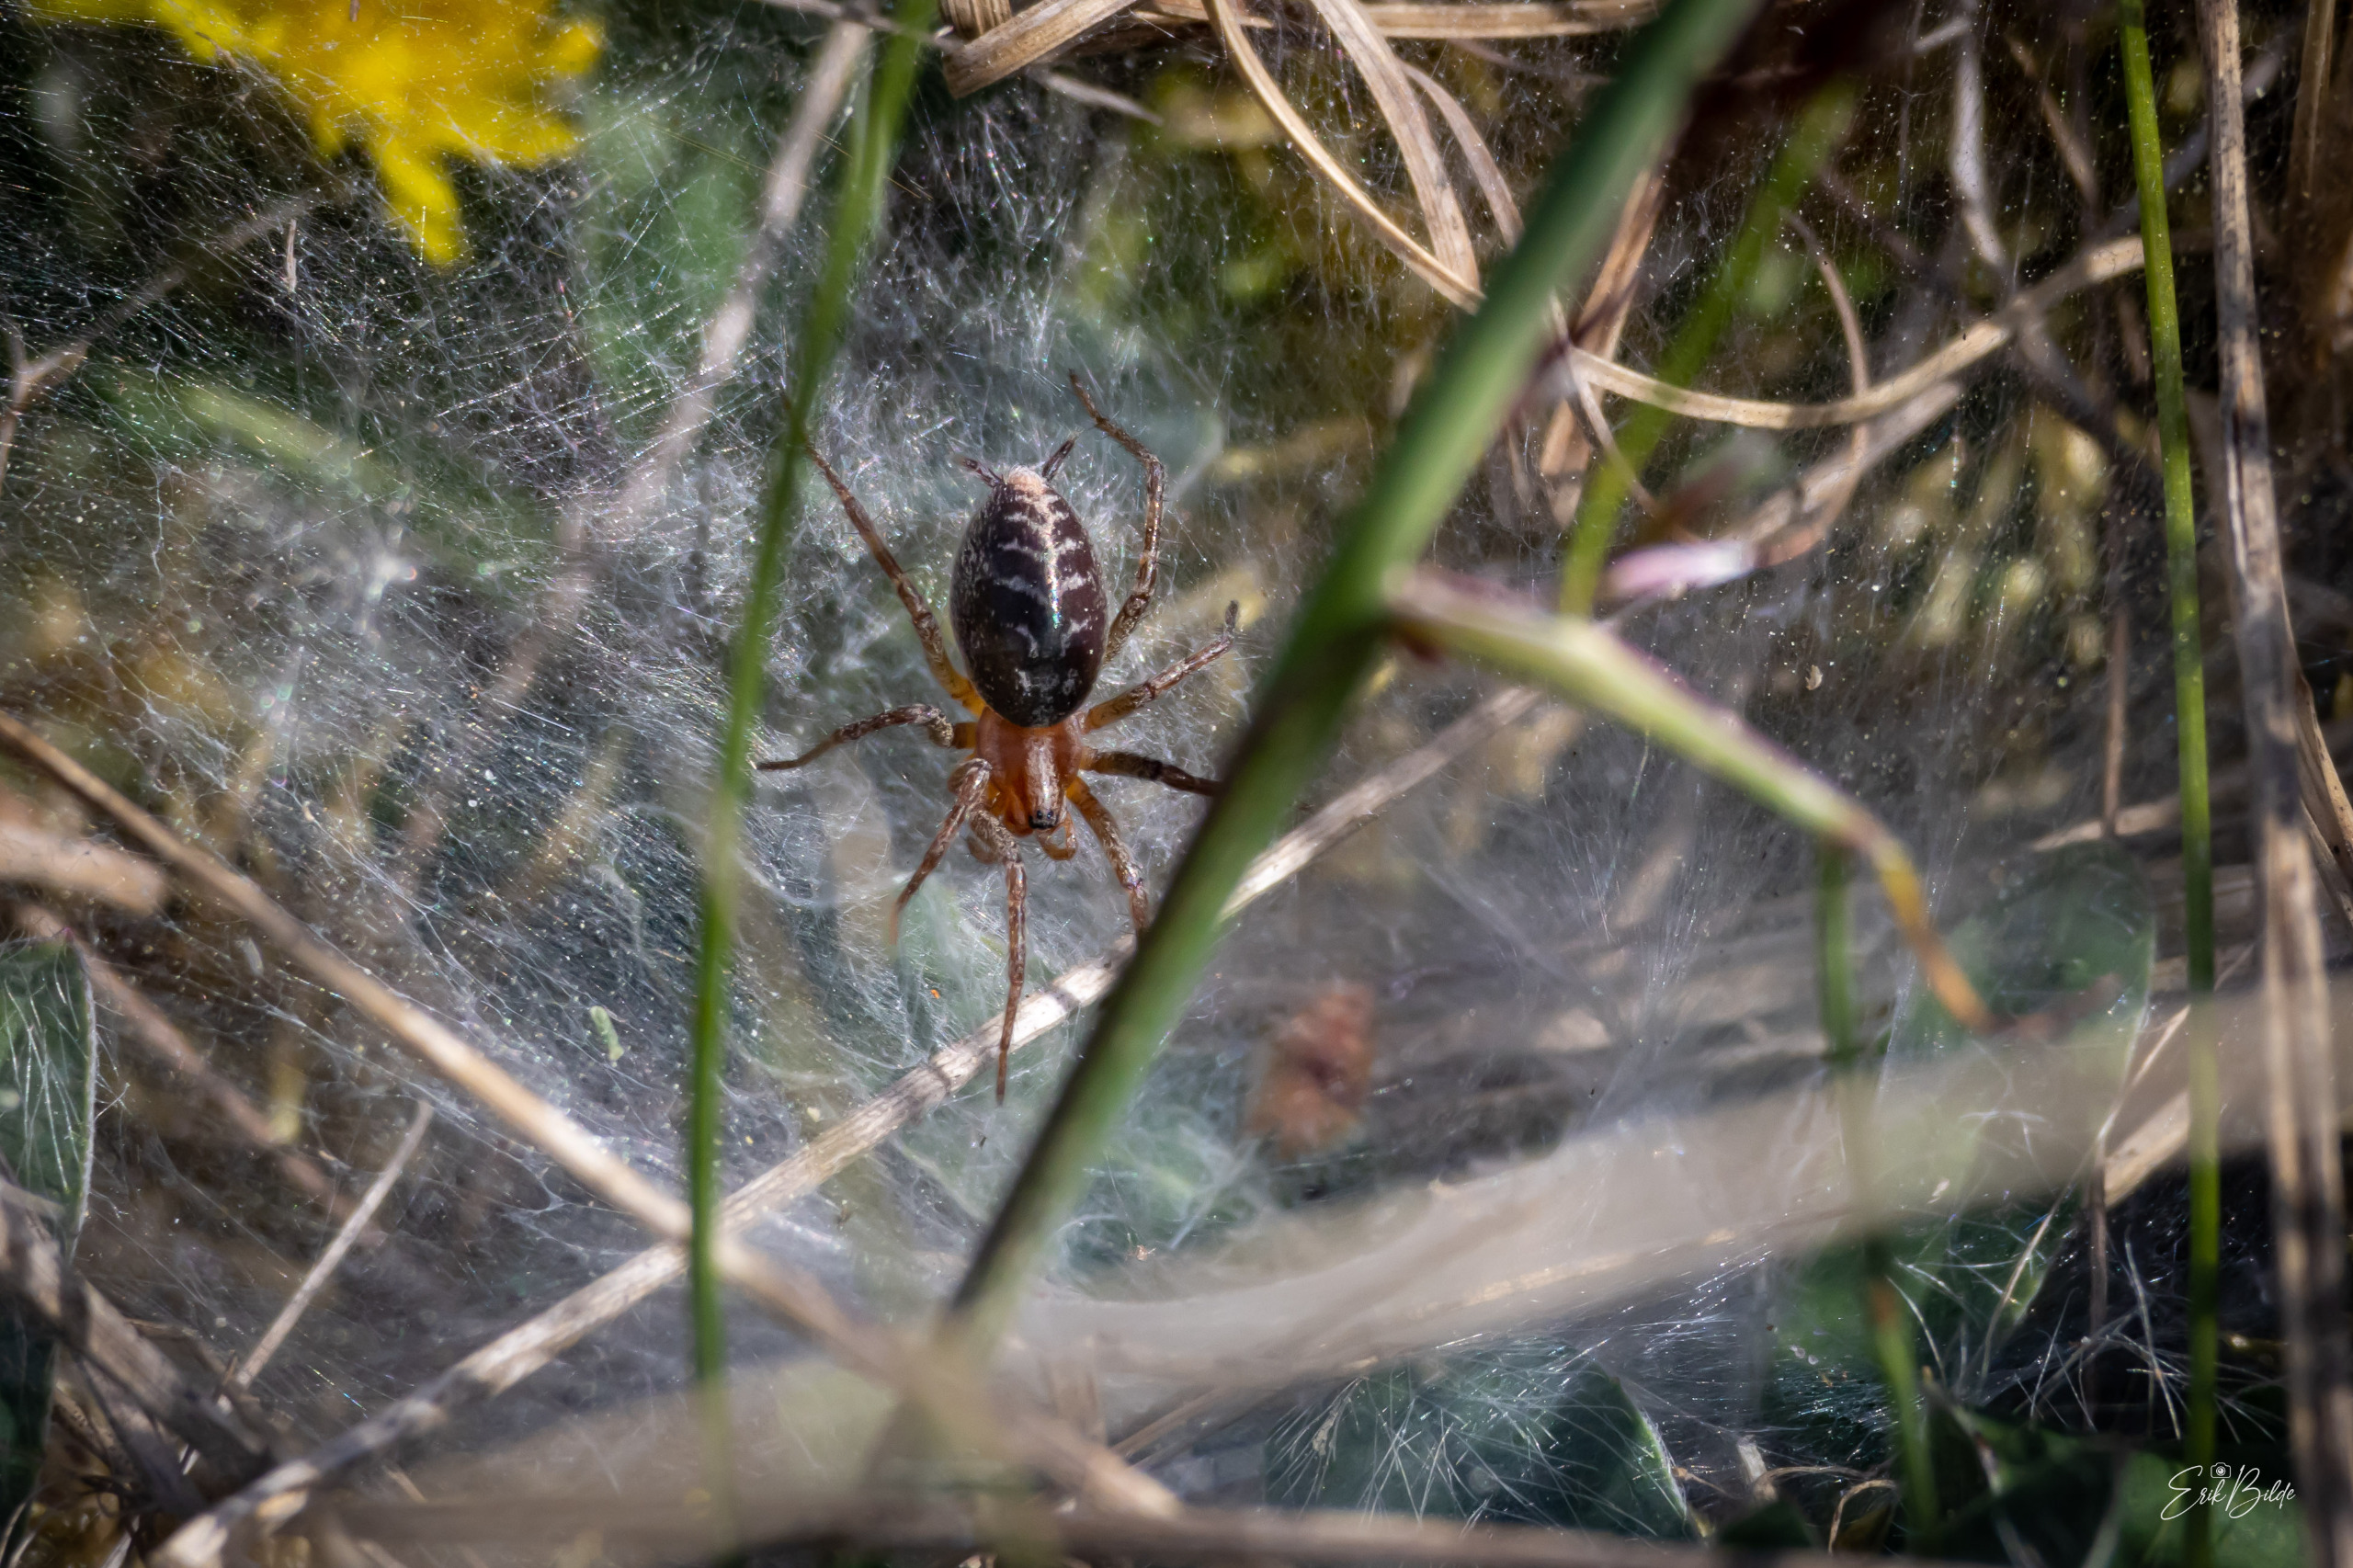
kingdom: Animalia
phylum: Arthropoda
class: Arachnida
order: Araneae
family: Agelenidae
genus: Agelena
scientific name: Agelena labyrinthica
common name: Labyrintedderkop
